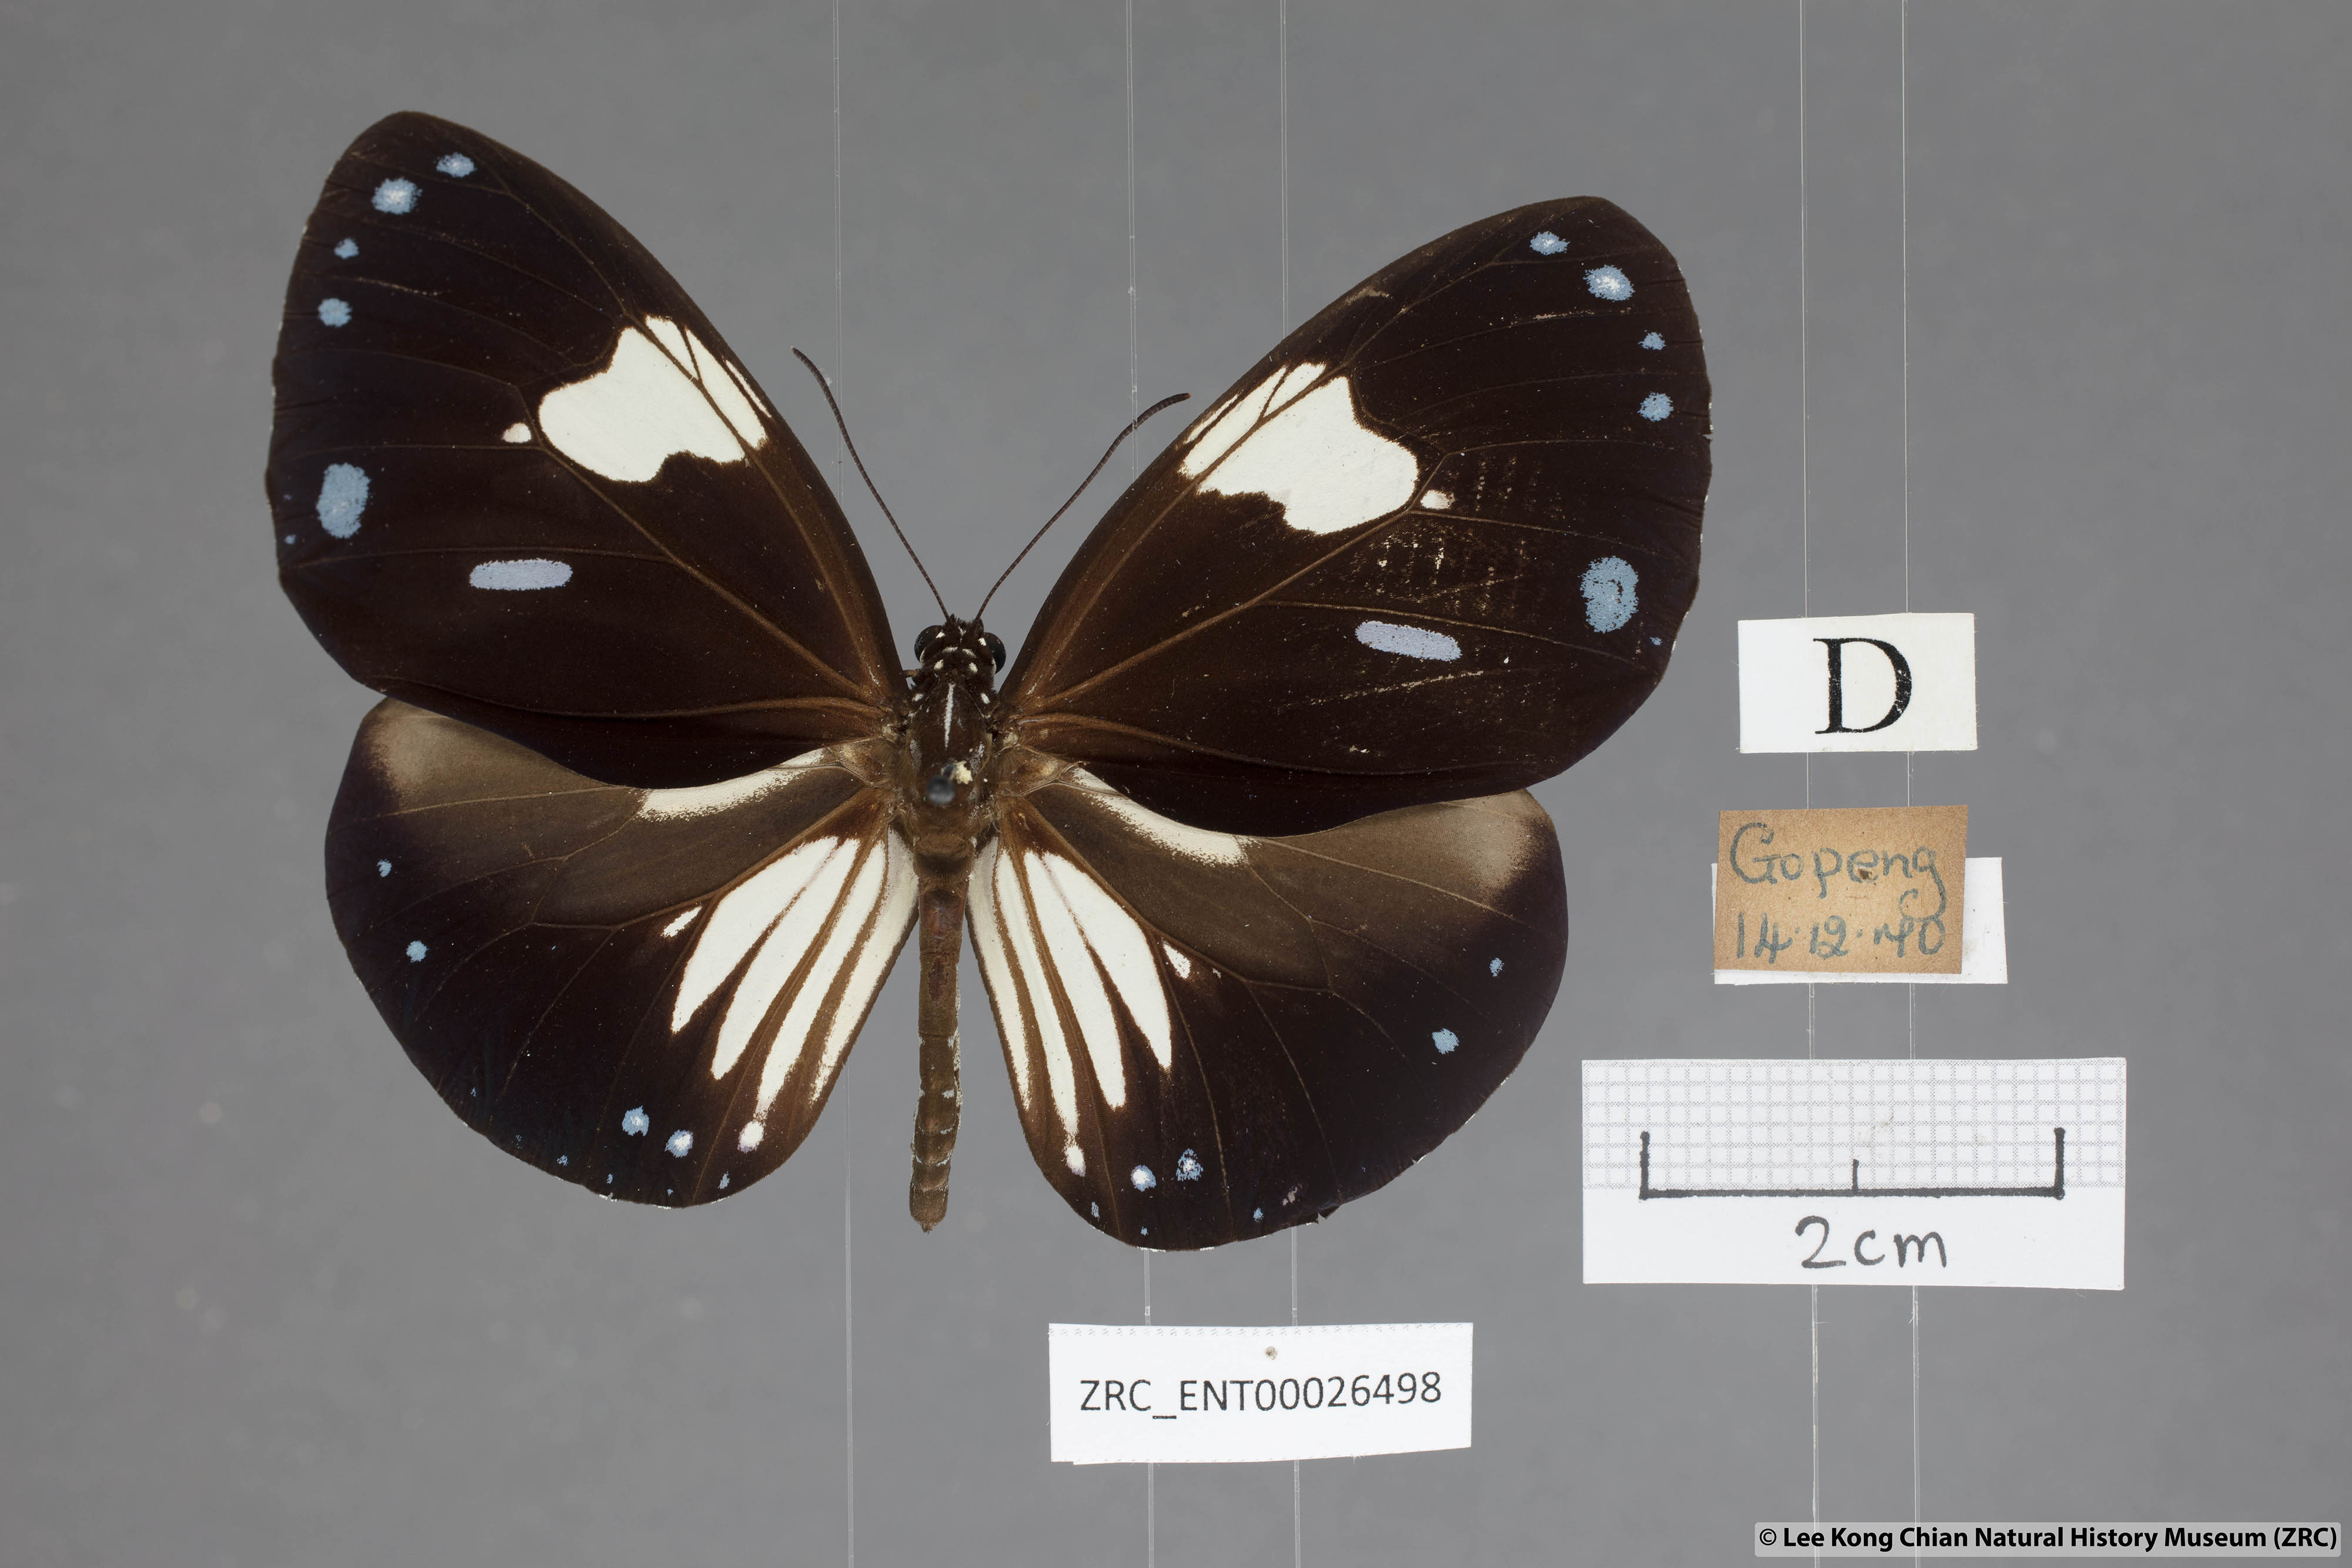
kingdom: Animalia
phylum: Arthropoda
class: Insecta
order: Lepidoptera
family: Nymphalidae
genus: Euploea
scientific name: Euploea radamanthus
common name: Magpie crow butterfly
